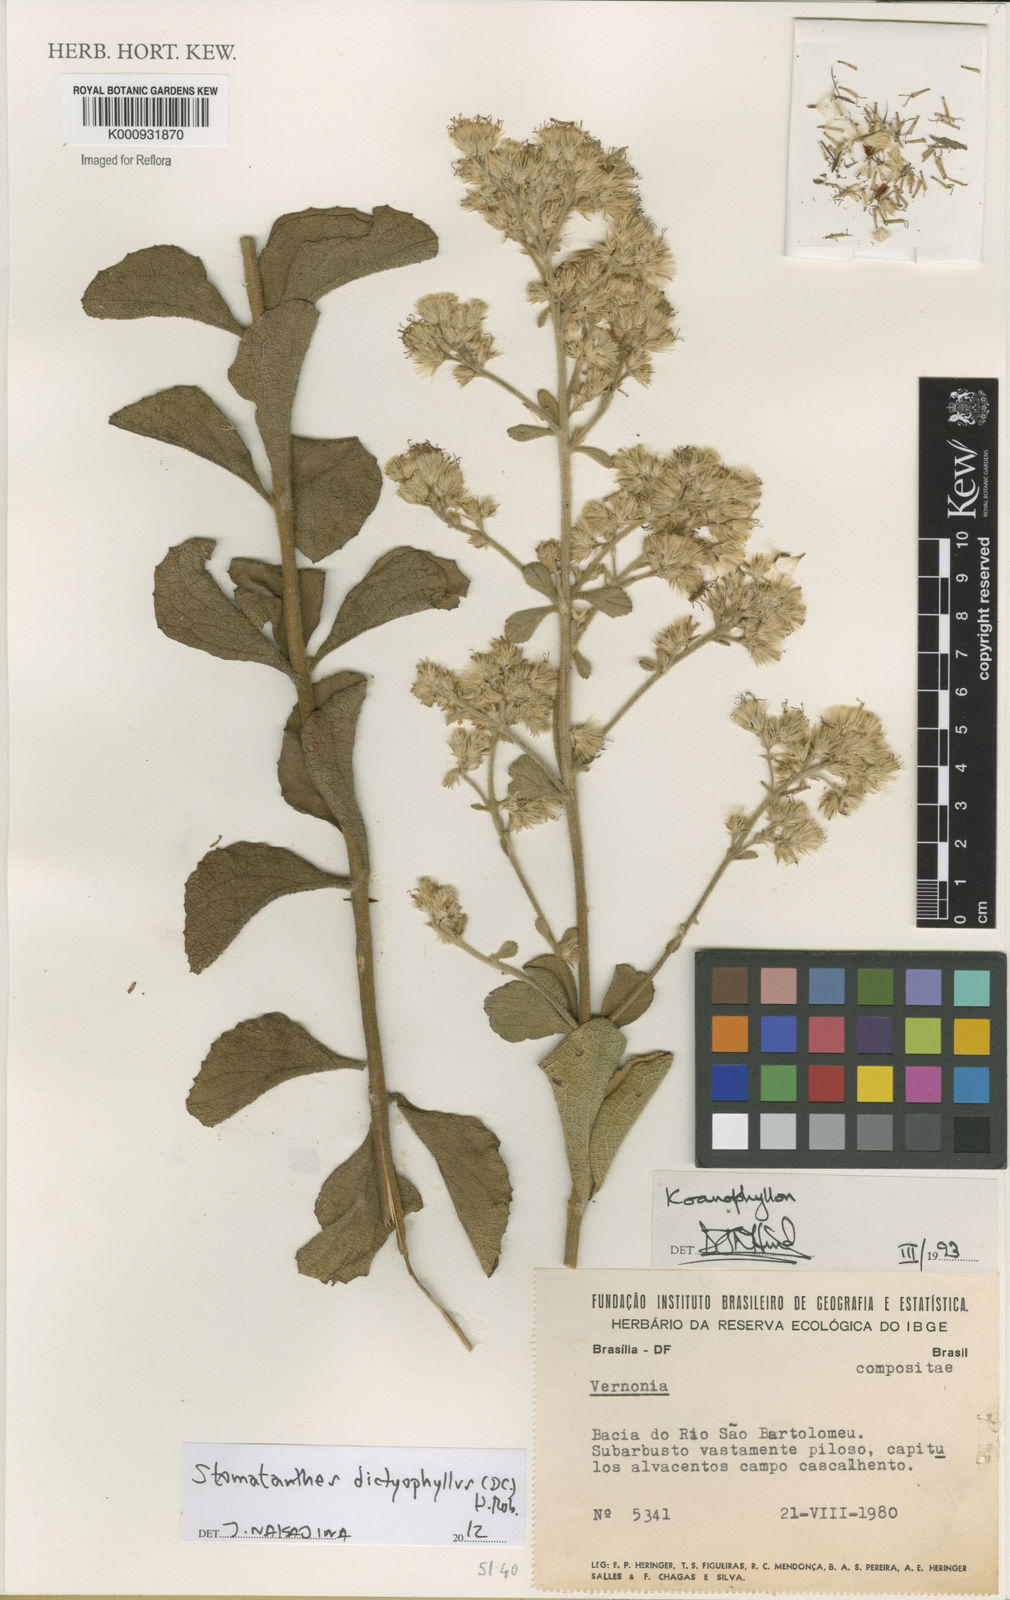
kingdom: Plantae
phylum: Tracheophyta
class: Magnoliopsida
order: Asterales
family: Asteraceae
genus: Stomatanthes
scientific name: Stomatanthes dictyophyllus
